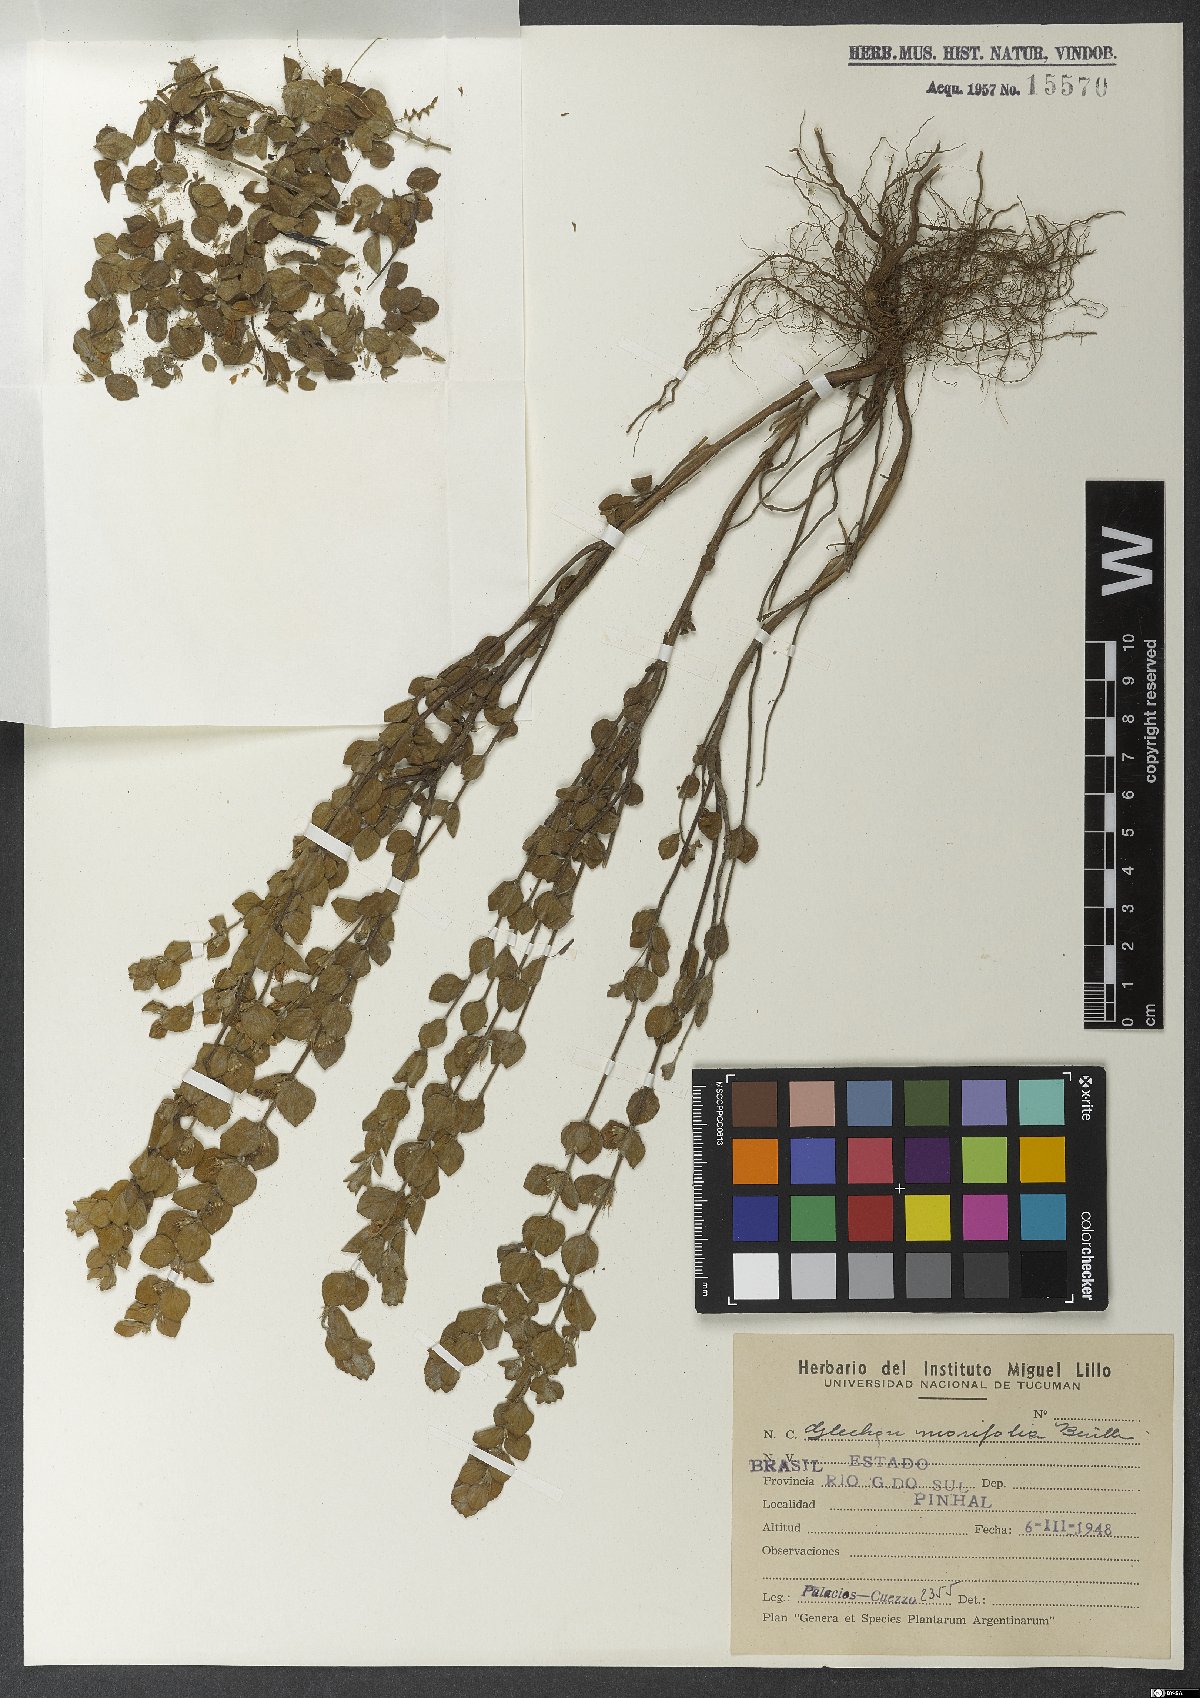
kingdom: Plantae
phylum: Tracheophyta
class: Magnoliopsida
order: Lamiales
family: Lamiaceae
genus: Glechon
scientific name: Glechon marifolia
